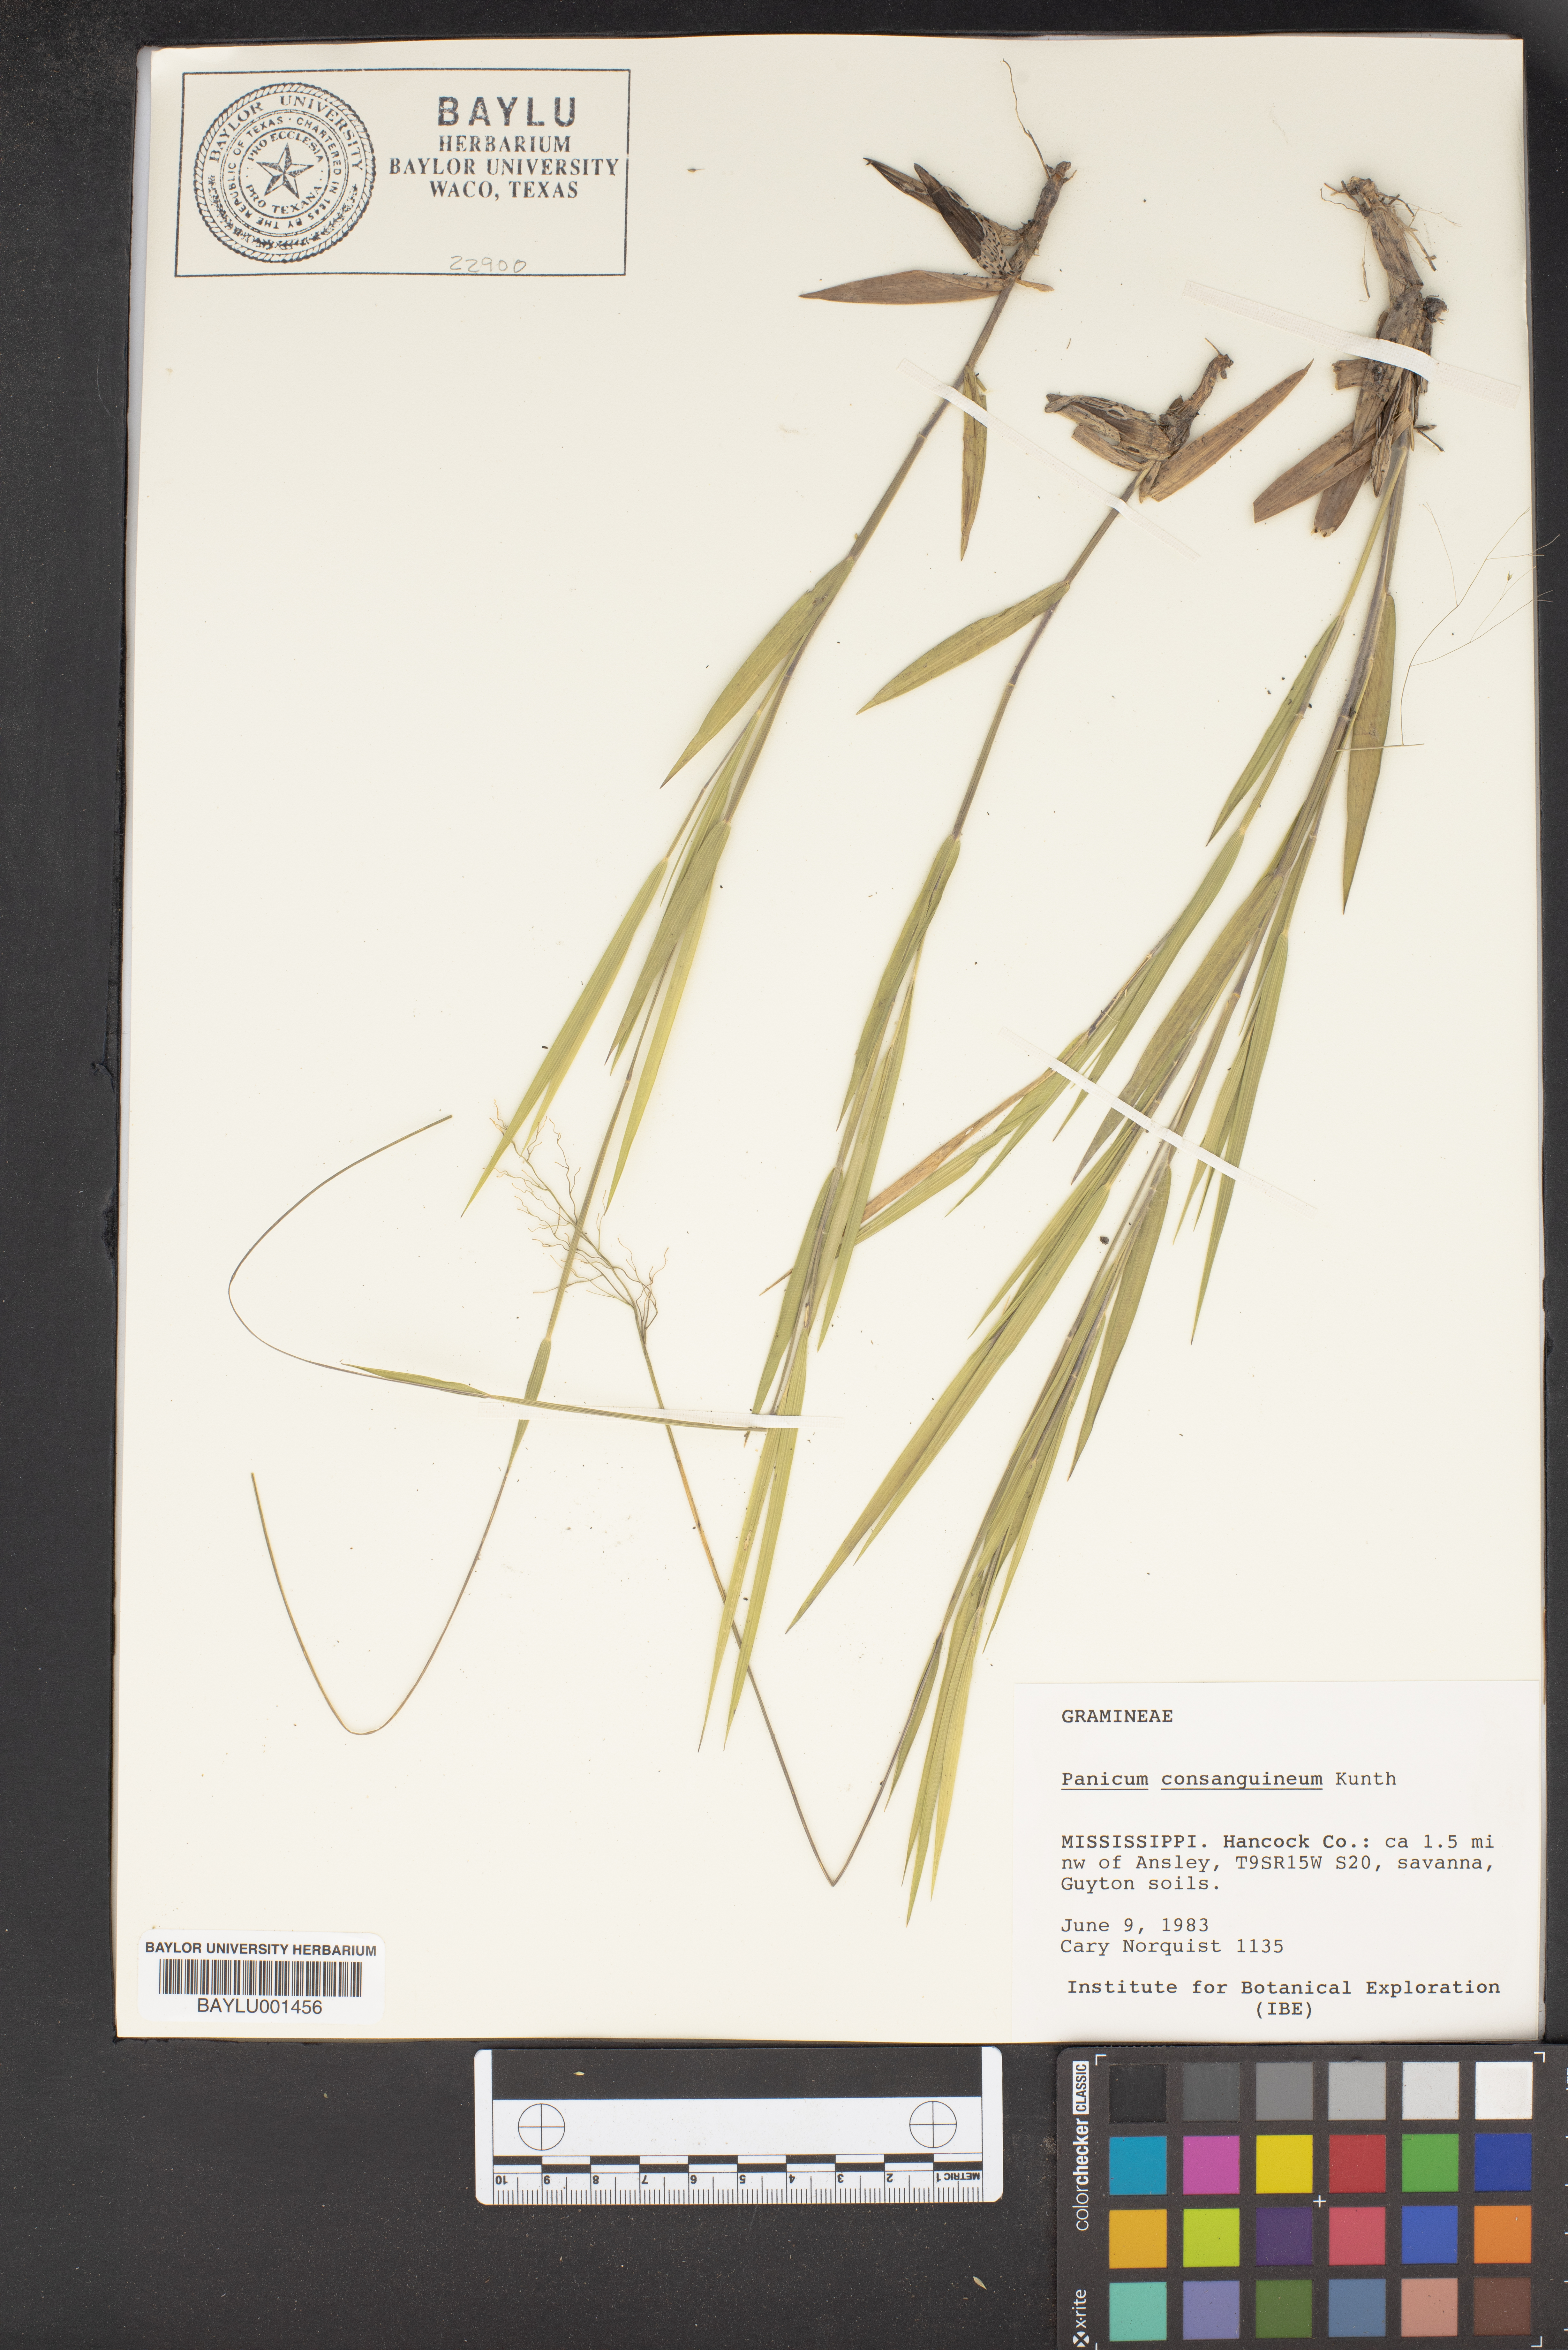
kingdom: Plantae
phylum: Tracheophyta
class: Liliopsida
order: Poales
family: Poaceae
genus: Dichanthelium
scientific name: Dichanthelium consanguineum
